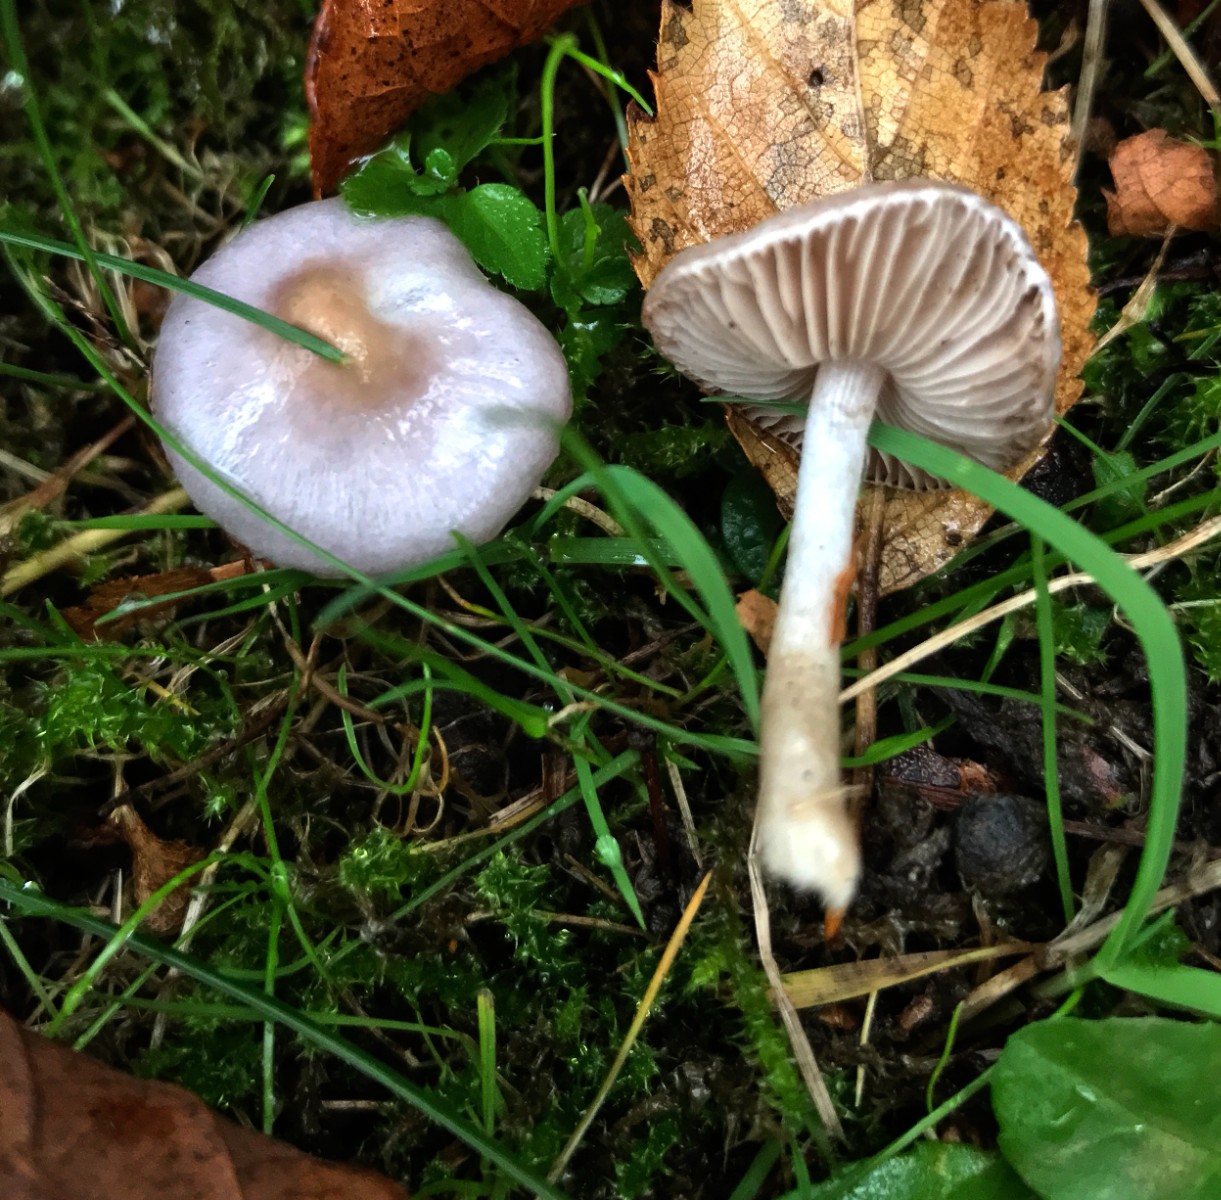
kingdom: Fungi
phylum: Basidiomycota
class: Agaricomycetes
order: Agaricales
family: Inocybaceae
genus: Inocybe
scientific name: Inocybe geophylla
